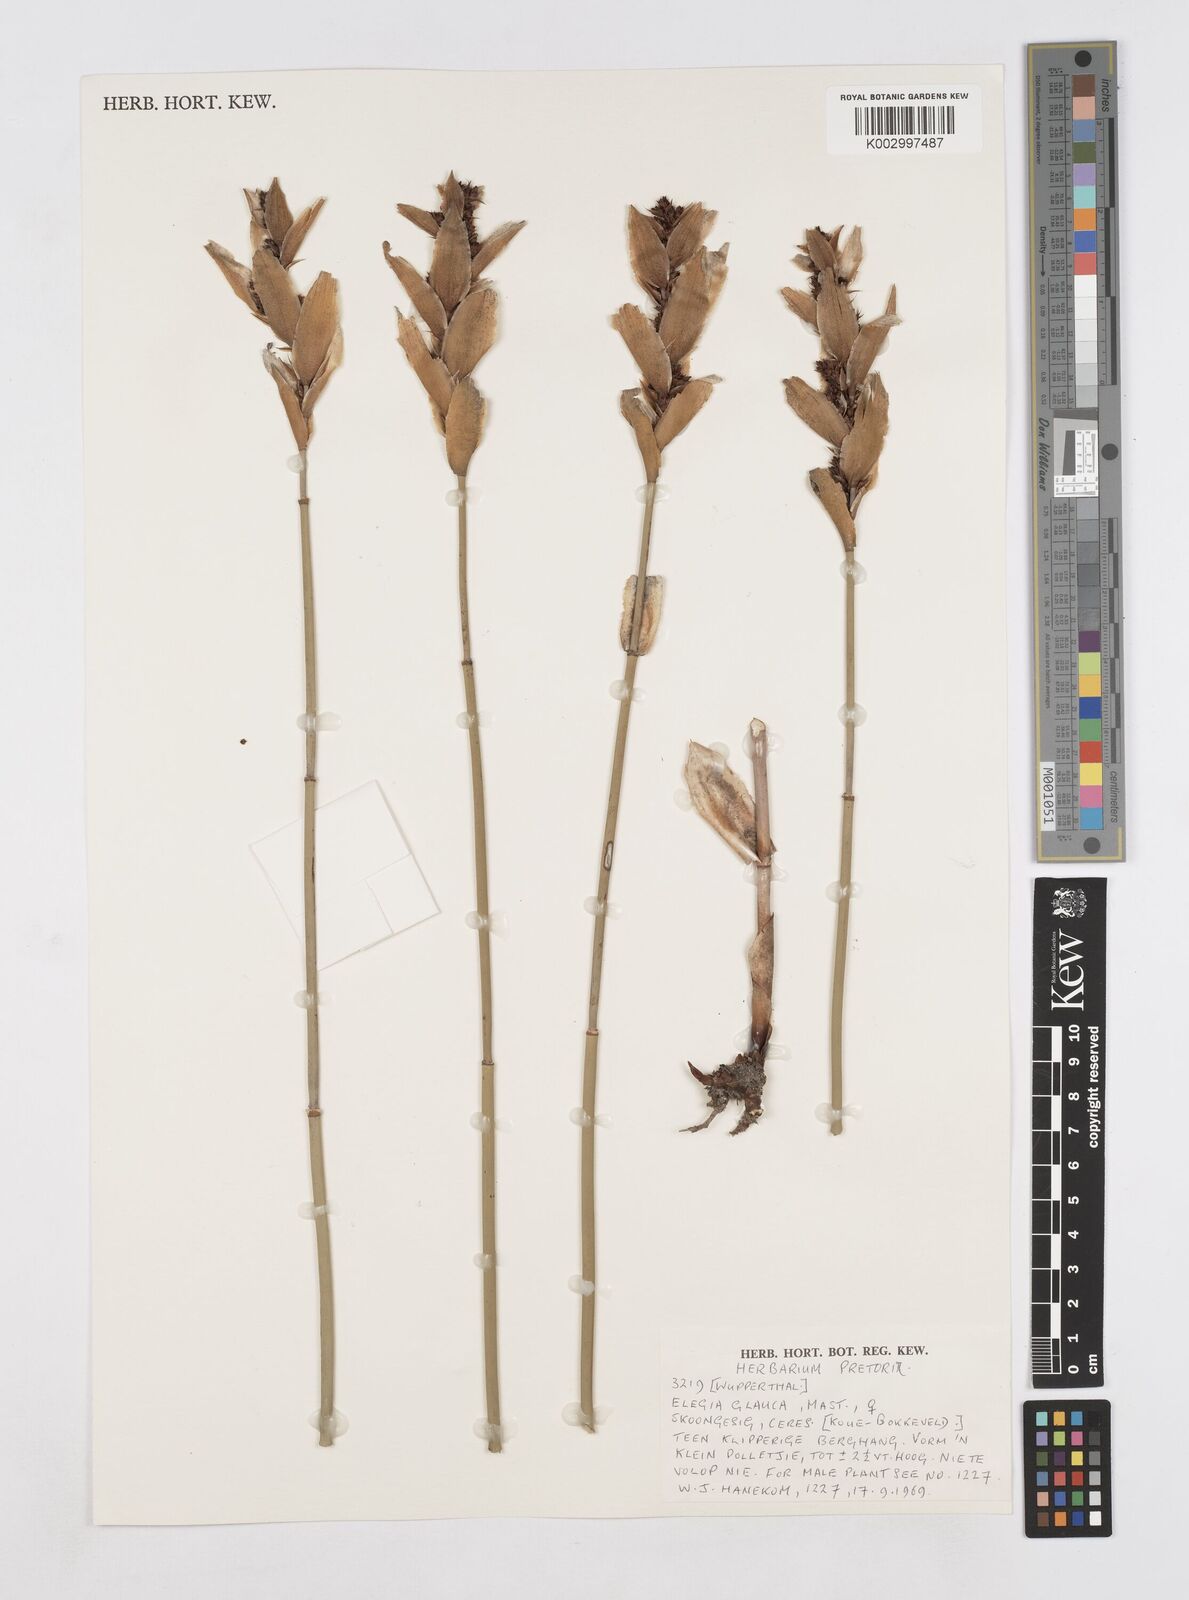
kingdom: Plantae
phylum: Tracheophyta
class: Liliopsida
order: Poales
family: Restionaceae
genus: Elegia
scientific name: Elegia asperiflora
